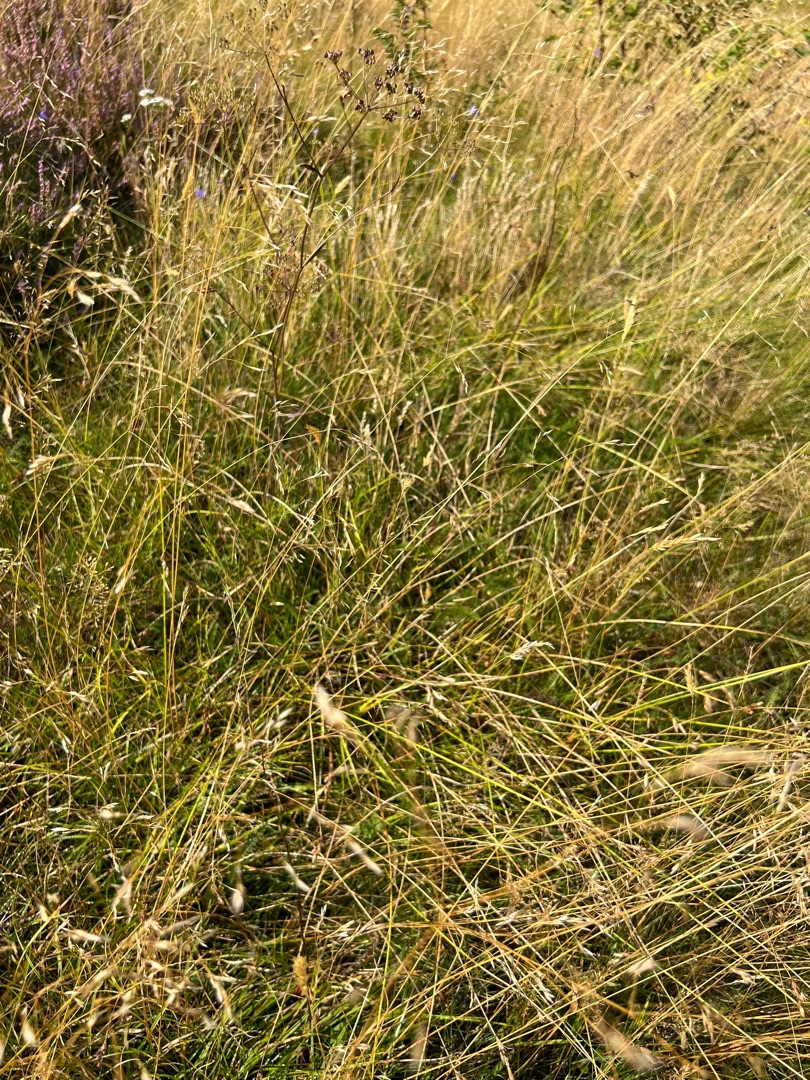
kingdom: Plantae
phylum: Tracheophyta
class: Liliopsida
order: Poales
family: Cyperaceae
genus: Carex
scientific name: Carex leporina
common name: Hare-star
